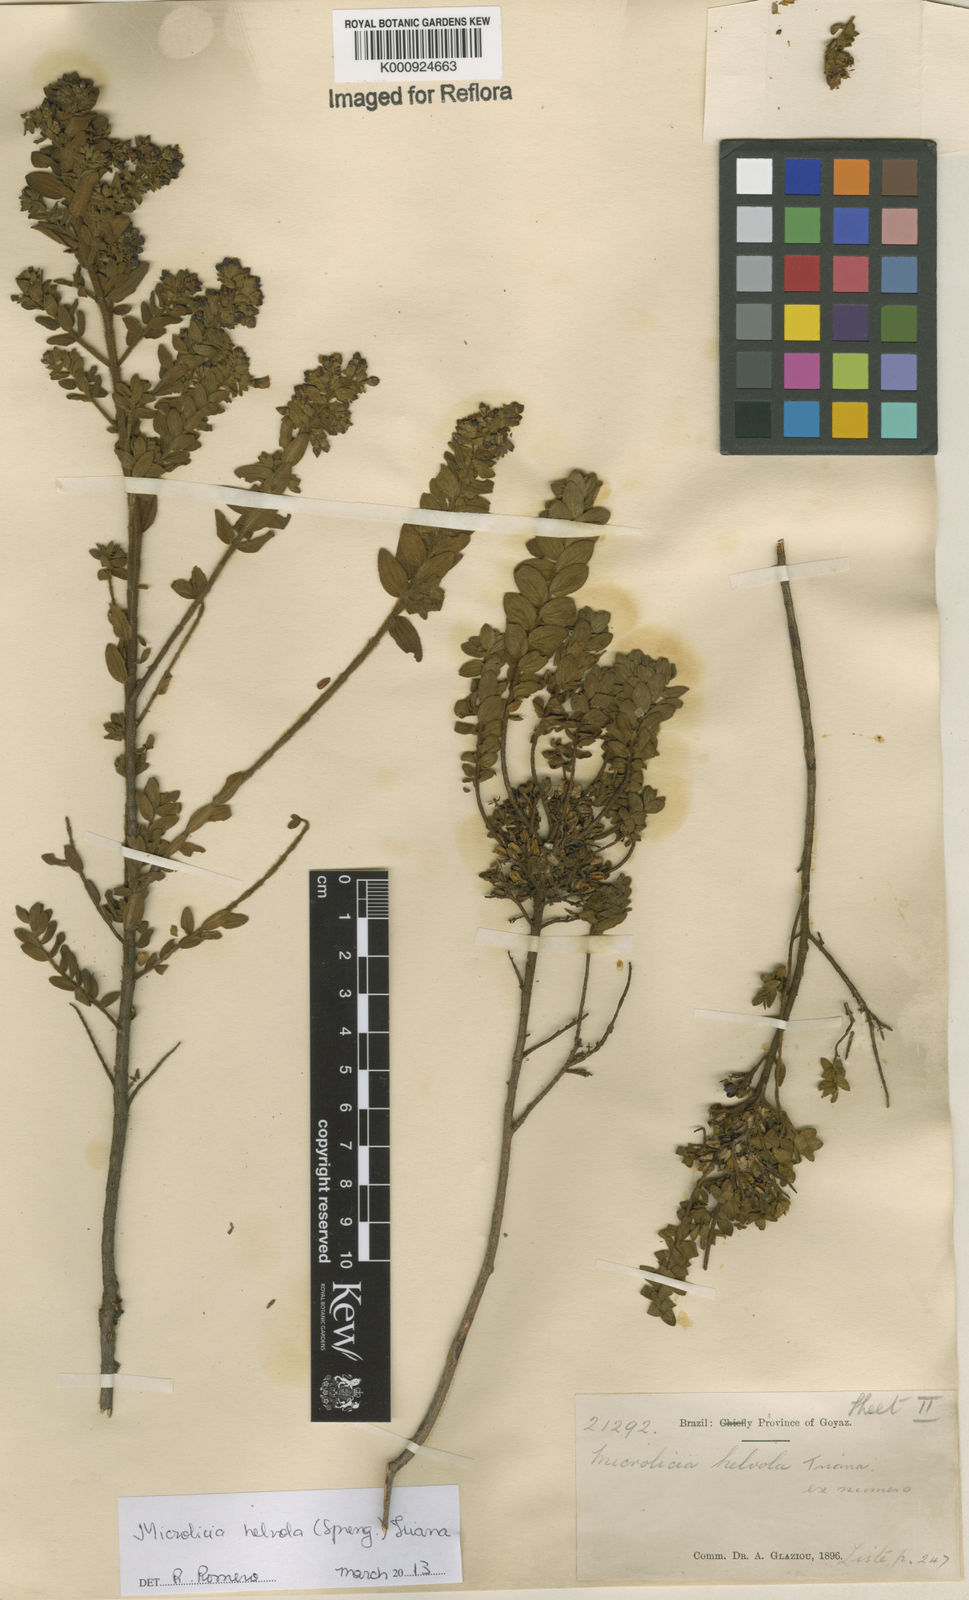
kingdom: Plantae
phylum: Tracheophyta
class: Magnoliopsida
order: Myrtales
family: Melastomataceae
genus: Microlicia
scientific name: Microlicia helvola
